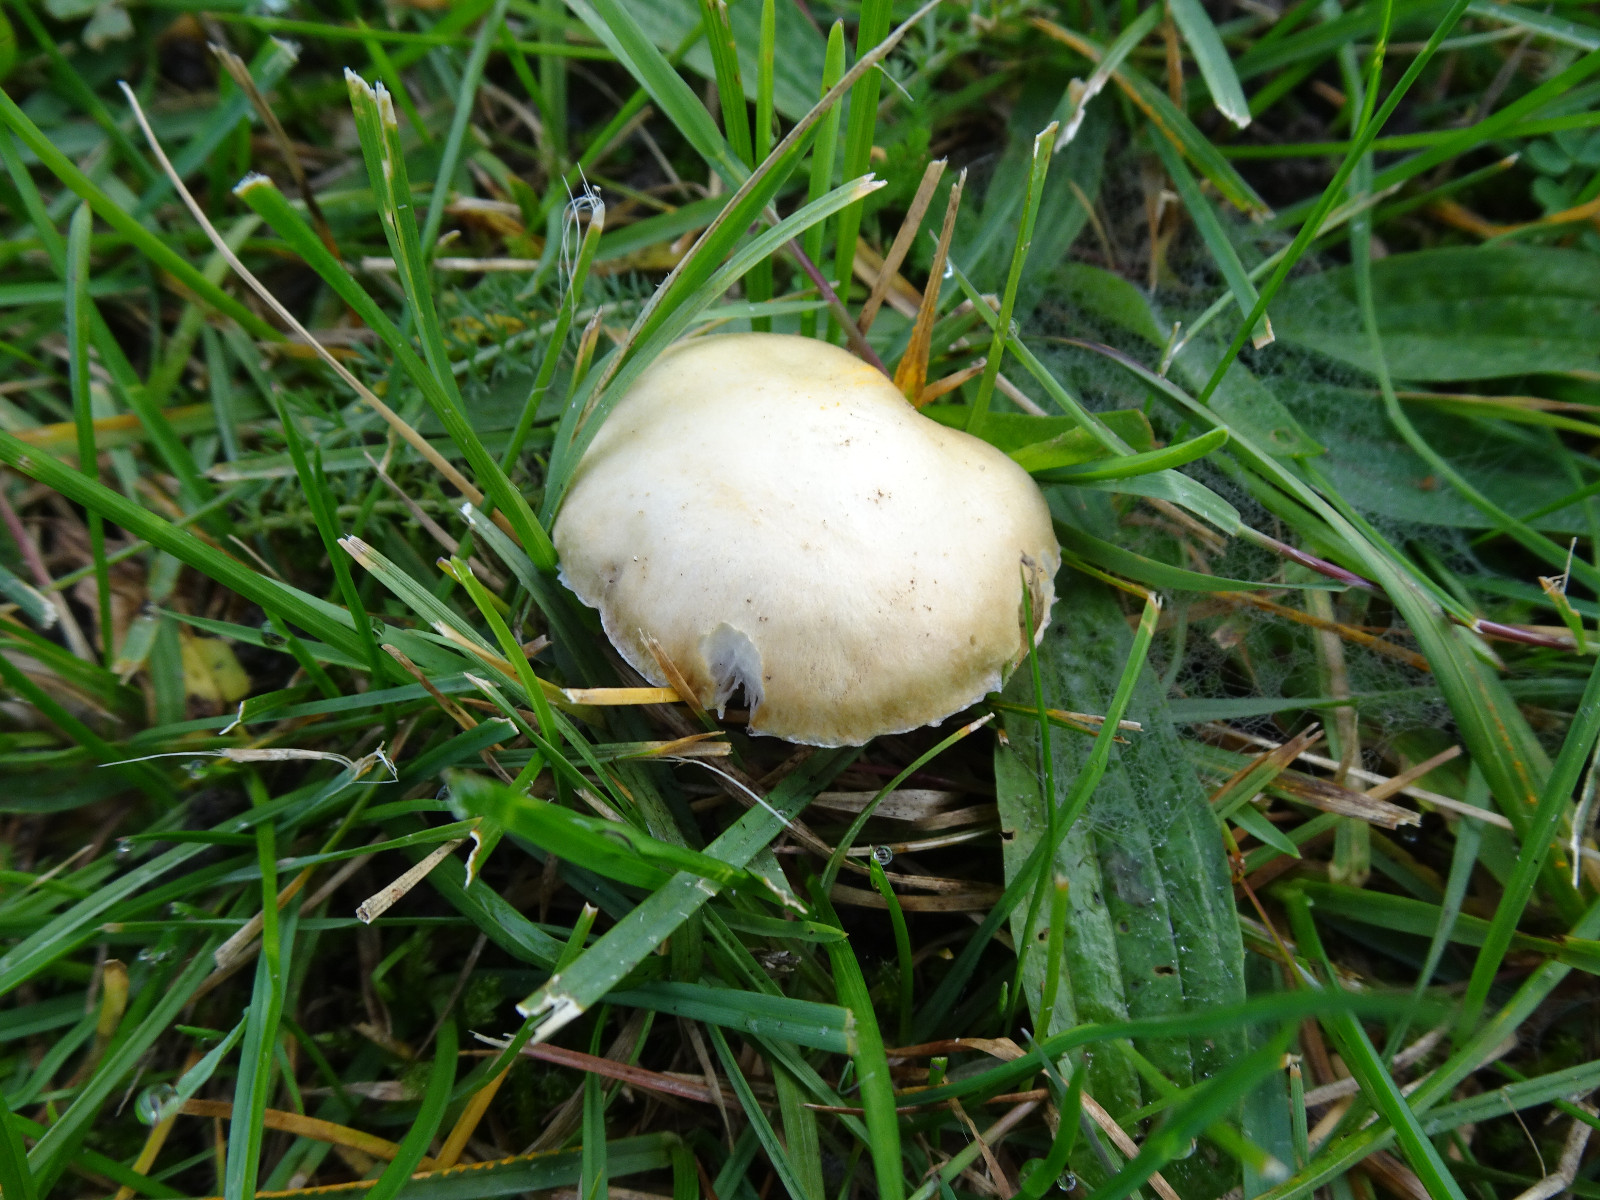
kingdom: Fungi
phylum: Basidiomycota
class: Agaricomycetes
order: Agaricales
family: Hymenogastraceae
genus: Psilocybe
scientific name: Psilocybe coronilla
